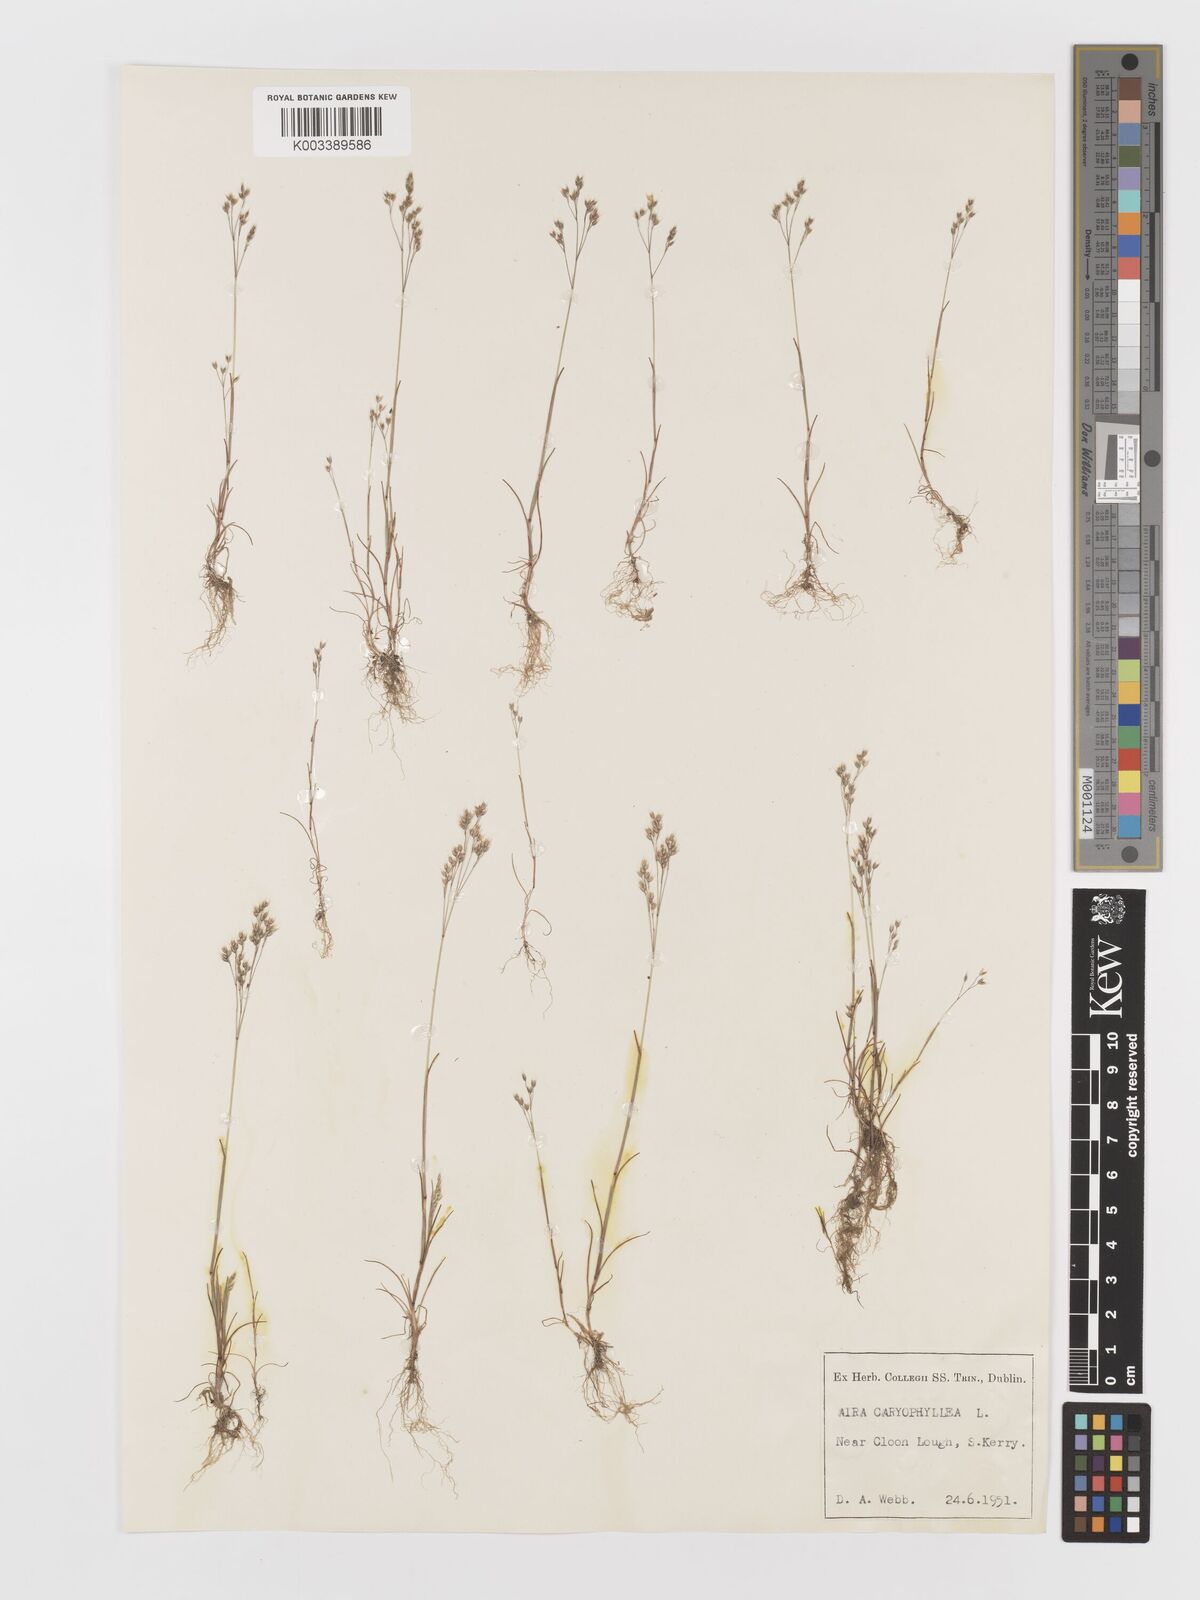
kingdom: Plantae
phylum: Tracheophyta
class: Liliopsida
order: Poales
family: Poaceae
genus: Aira
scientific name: Aira caryophyllea
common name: Silver hairgrass
